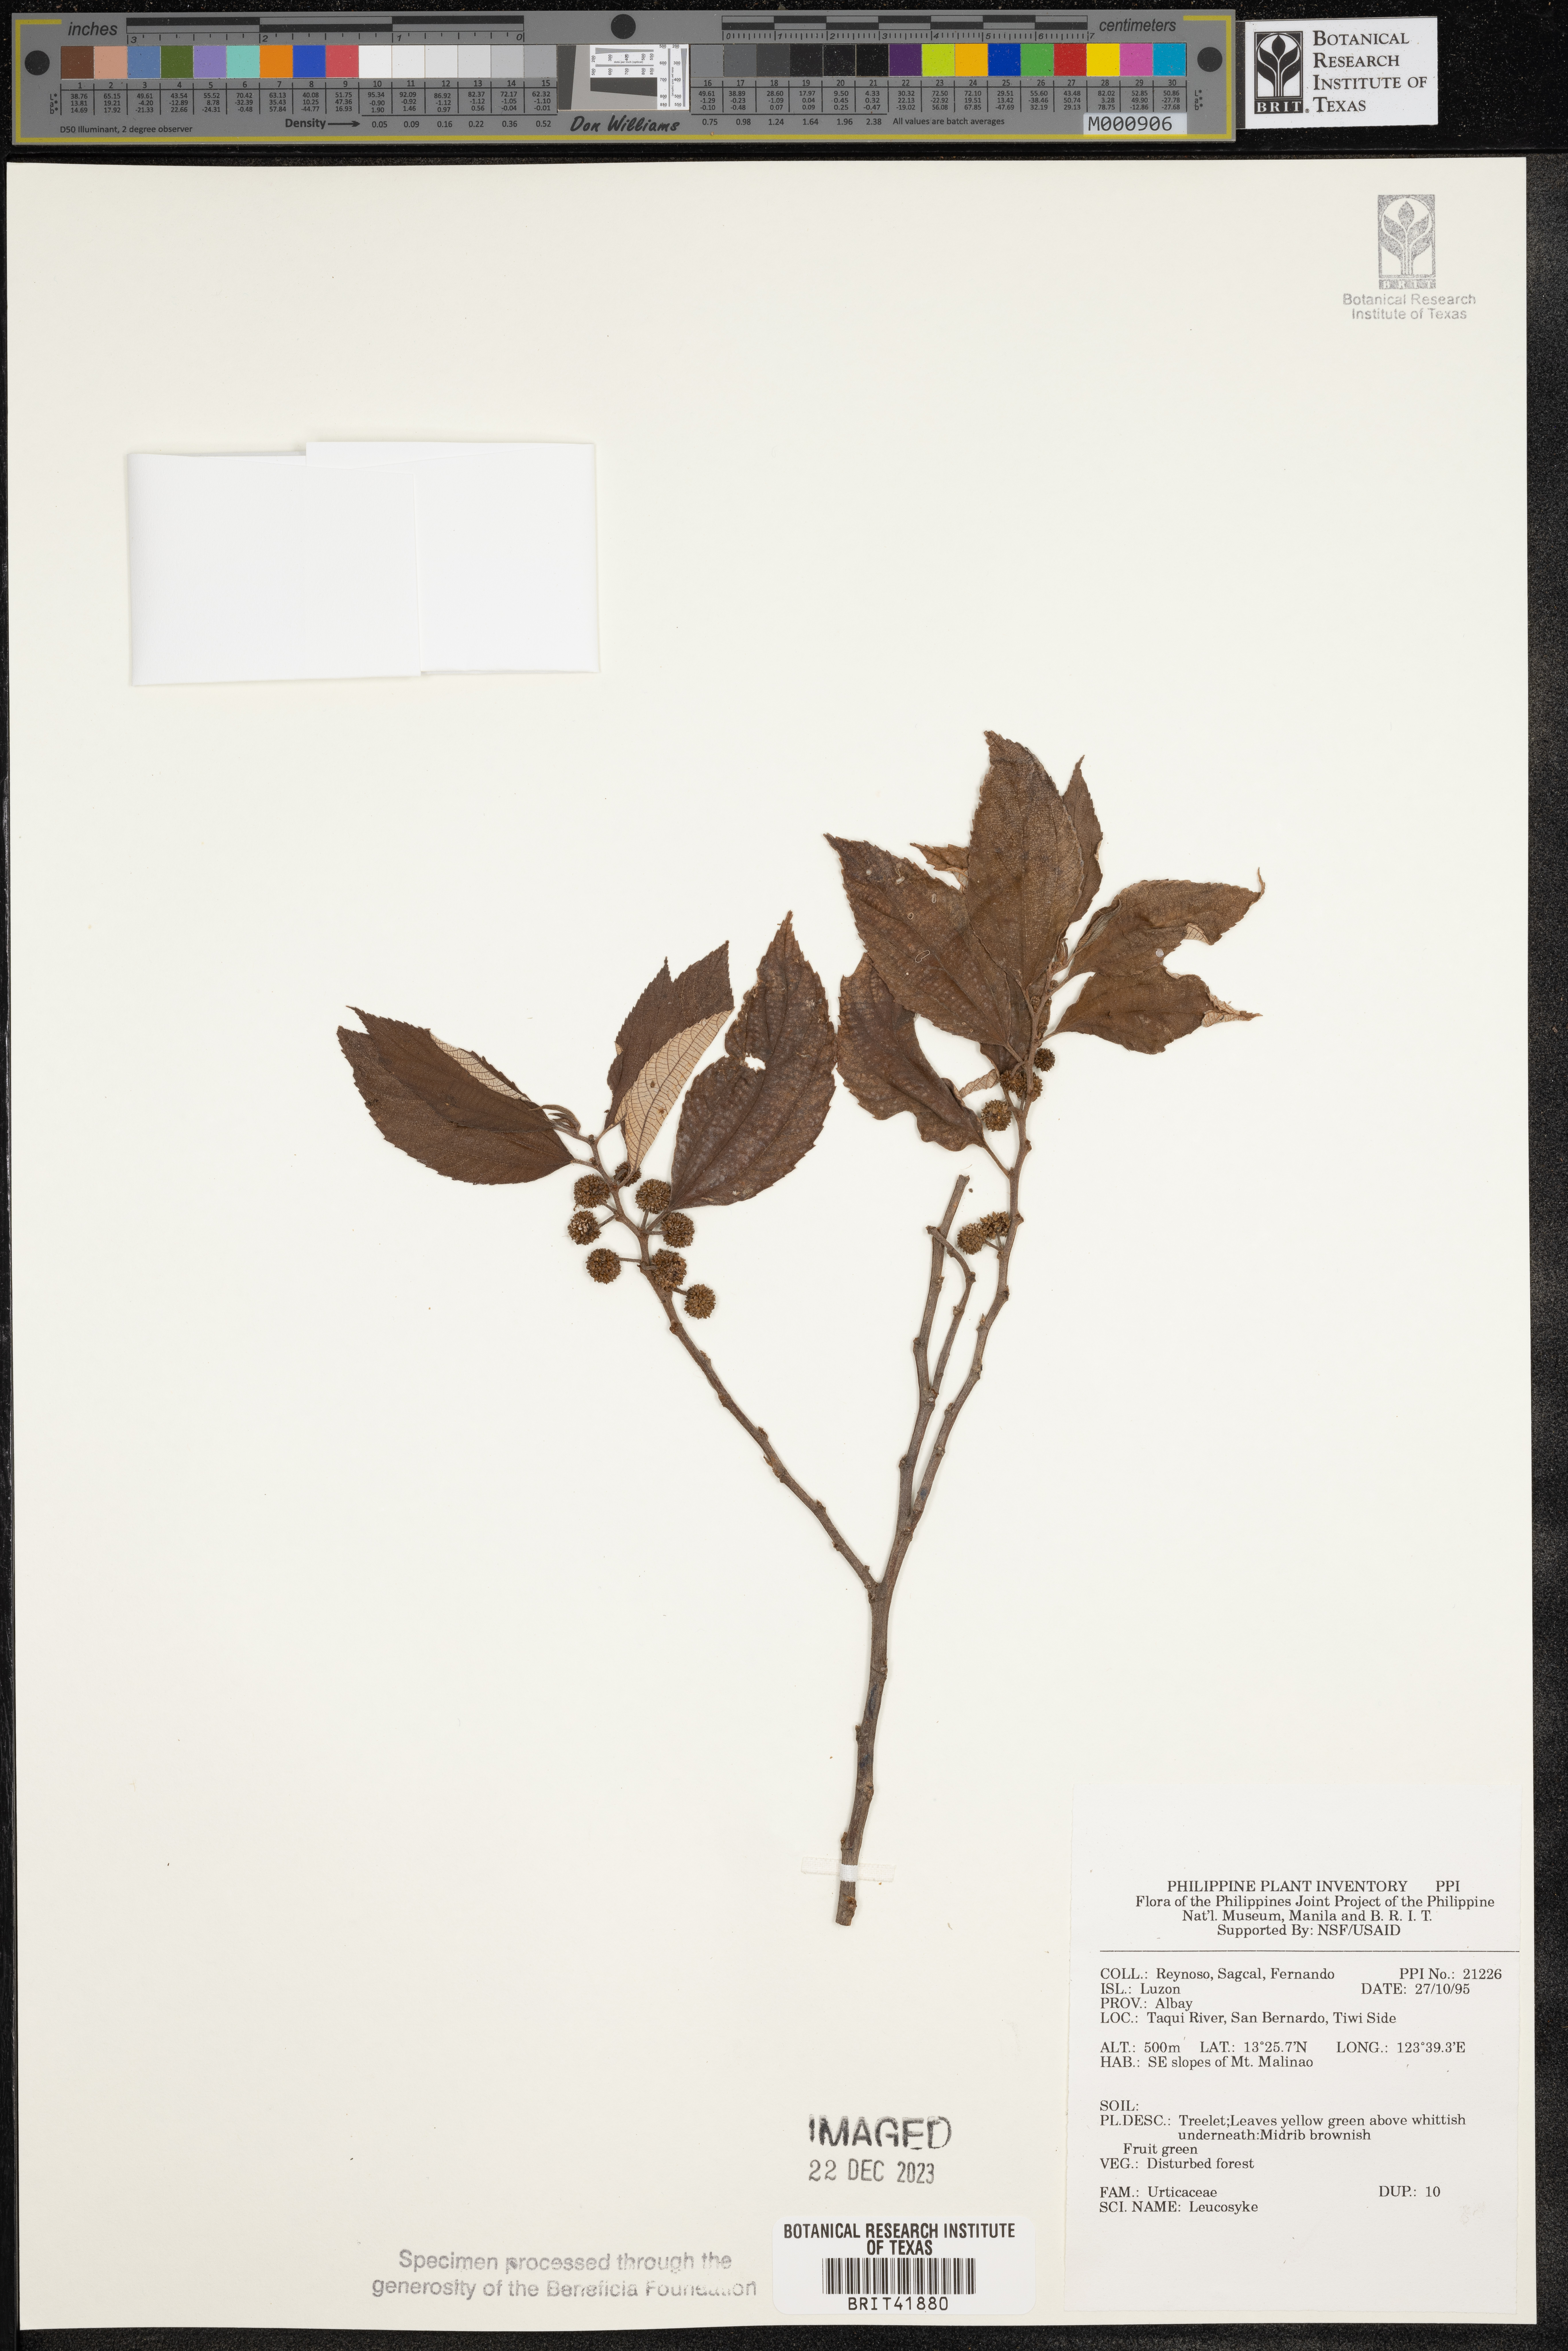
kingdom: Plantae
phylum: Tracheophyta
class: Magnoliopsida
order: Rosales
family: Urticaceae
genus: Leucosyke
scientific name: Leucosyke
